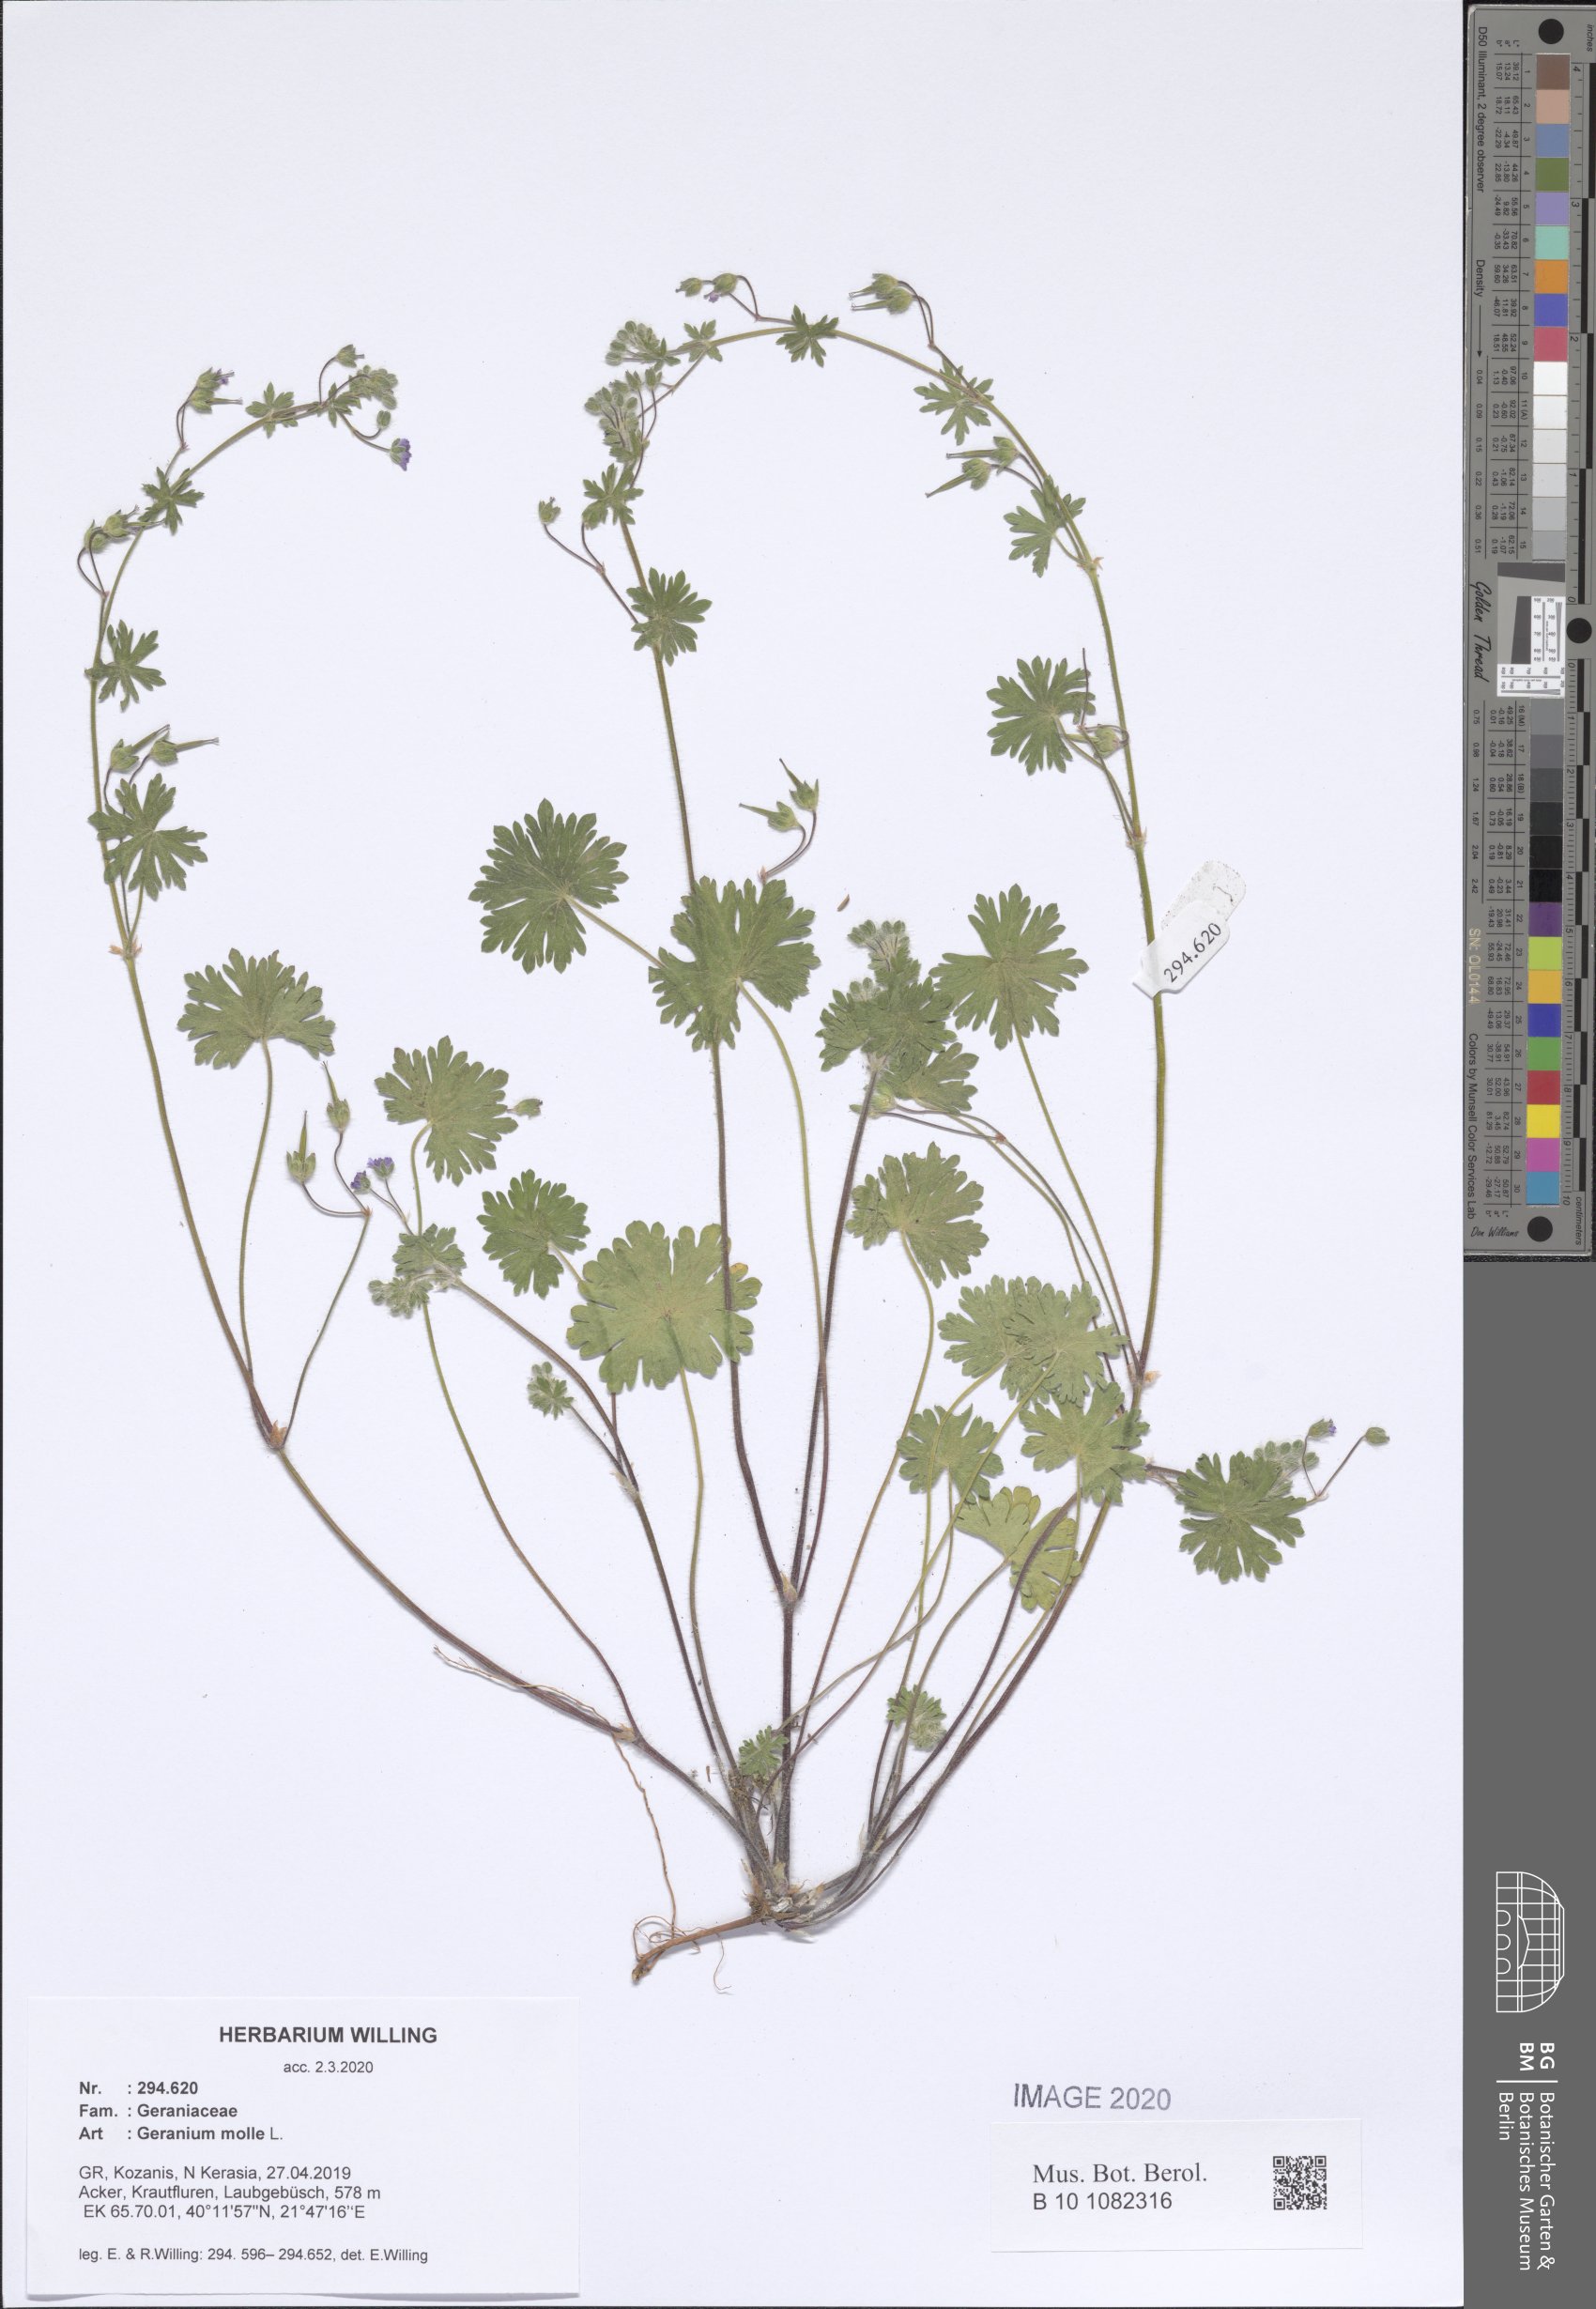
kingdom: Plantae
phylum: Tracheophyta
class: Magnoliopsida
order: Geraniales
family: Geraniaceae
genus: Geranium
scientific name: Geranium molle
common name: Dove's-foot crane's-bill
